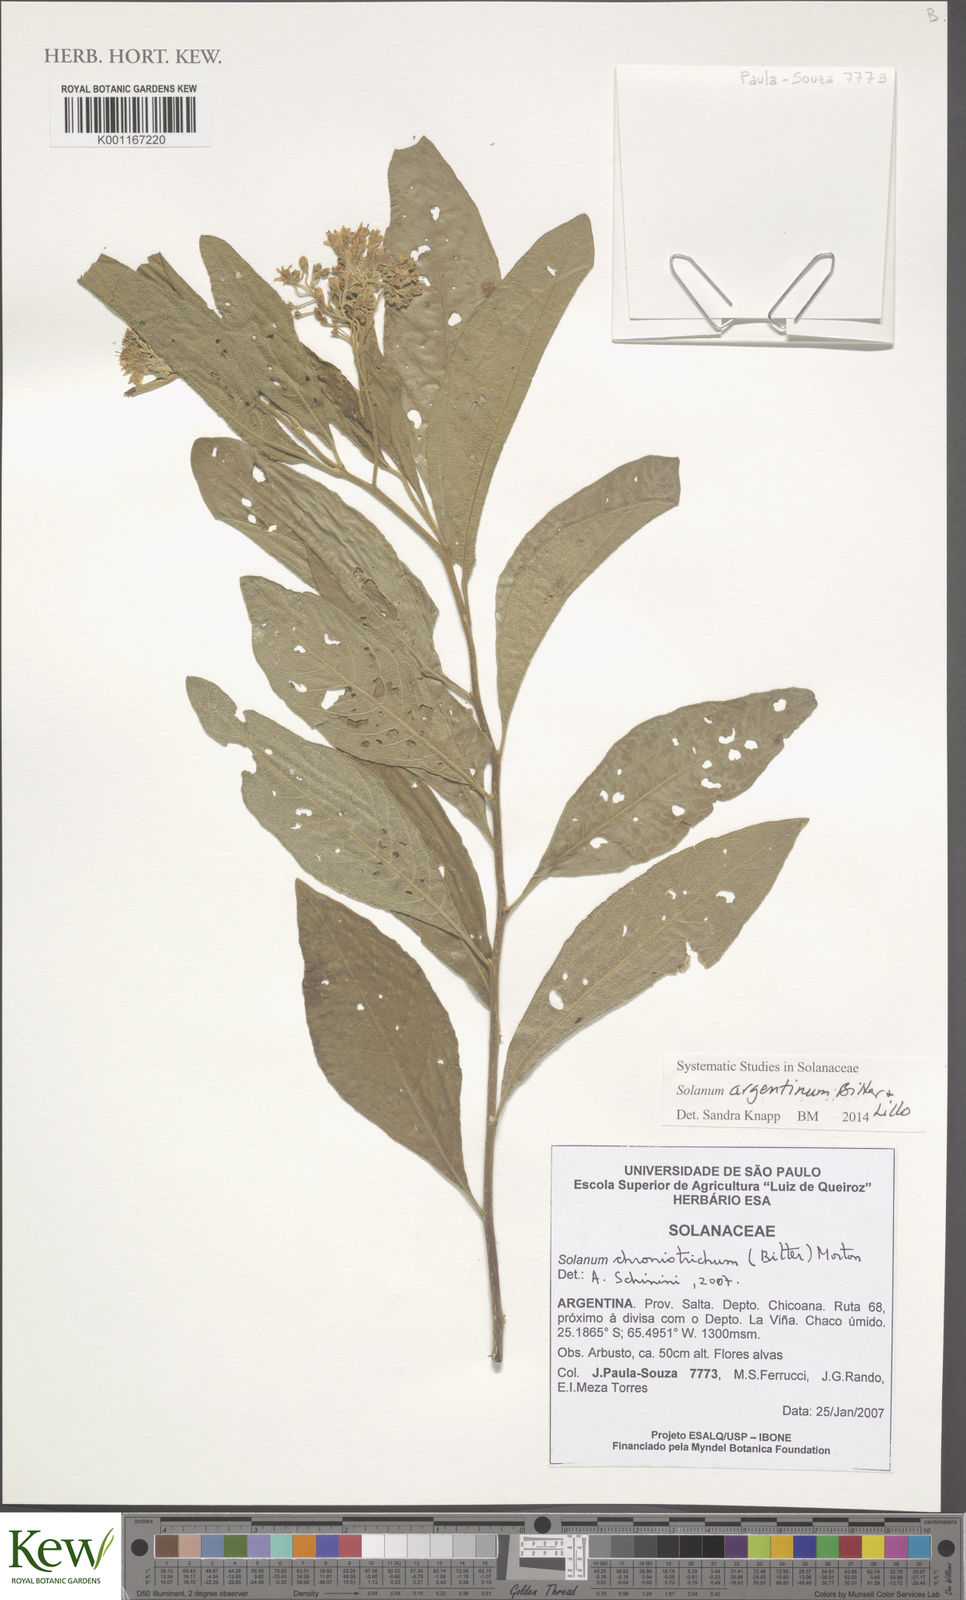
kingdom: Plantae
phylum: Tracheophyta
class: Magnoliopsida
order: Solanales
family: Solanaceae
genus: Solanum
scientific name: Solanum argentinum
